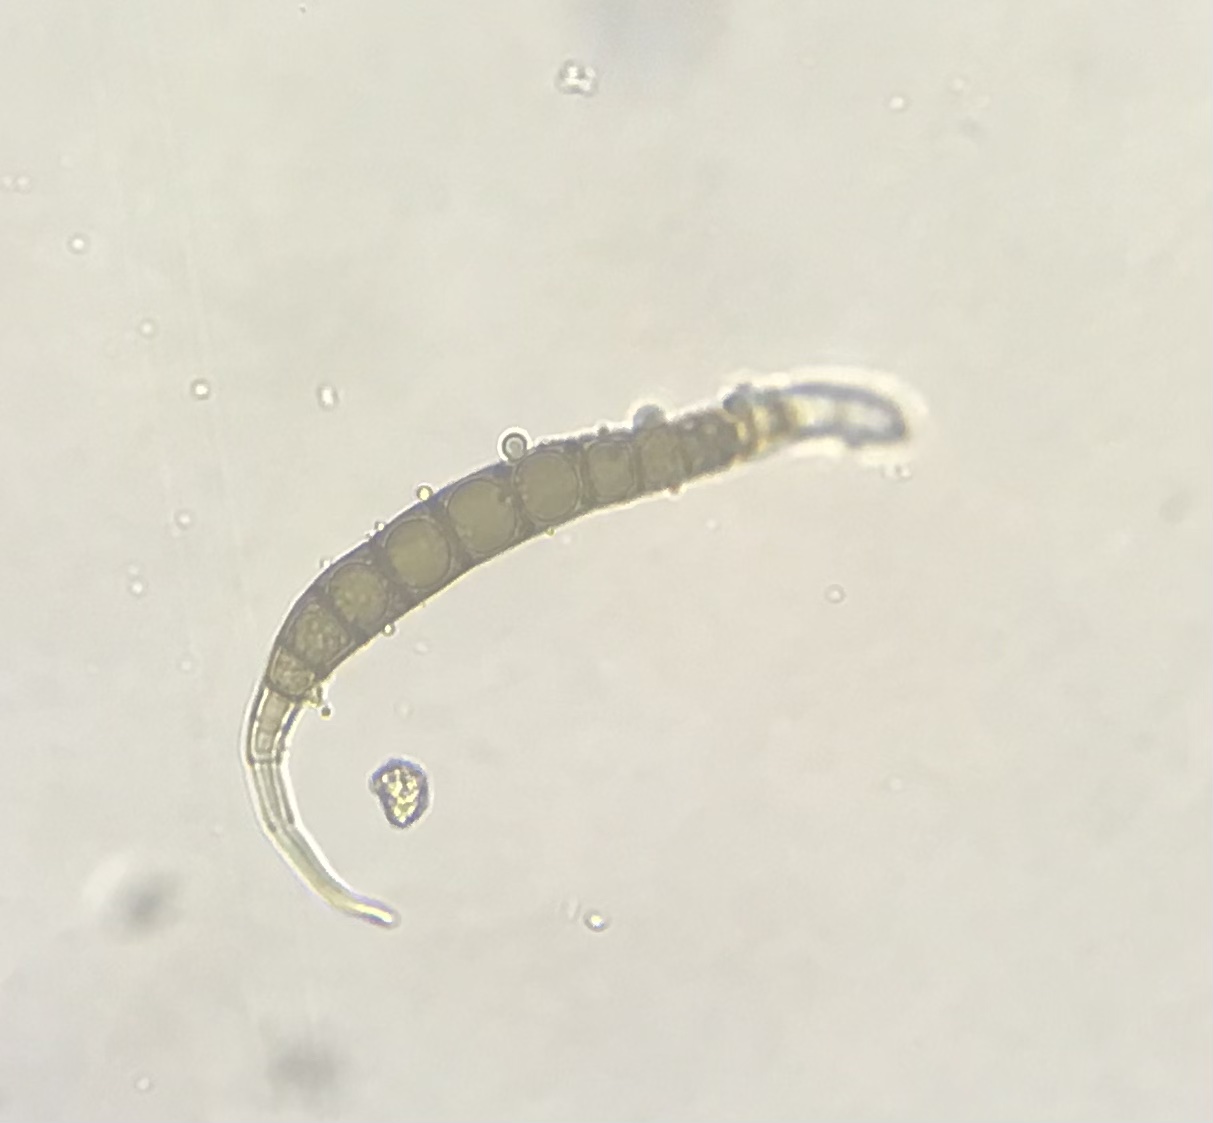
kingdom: Fungi
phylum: Ascomycota
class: Dothideomycetes
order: Pleosporales
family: Pleomassariaceae
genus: Asteromassaria
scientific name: Asteromassaria macrospora
